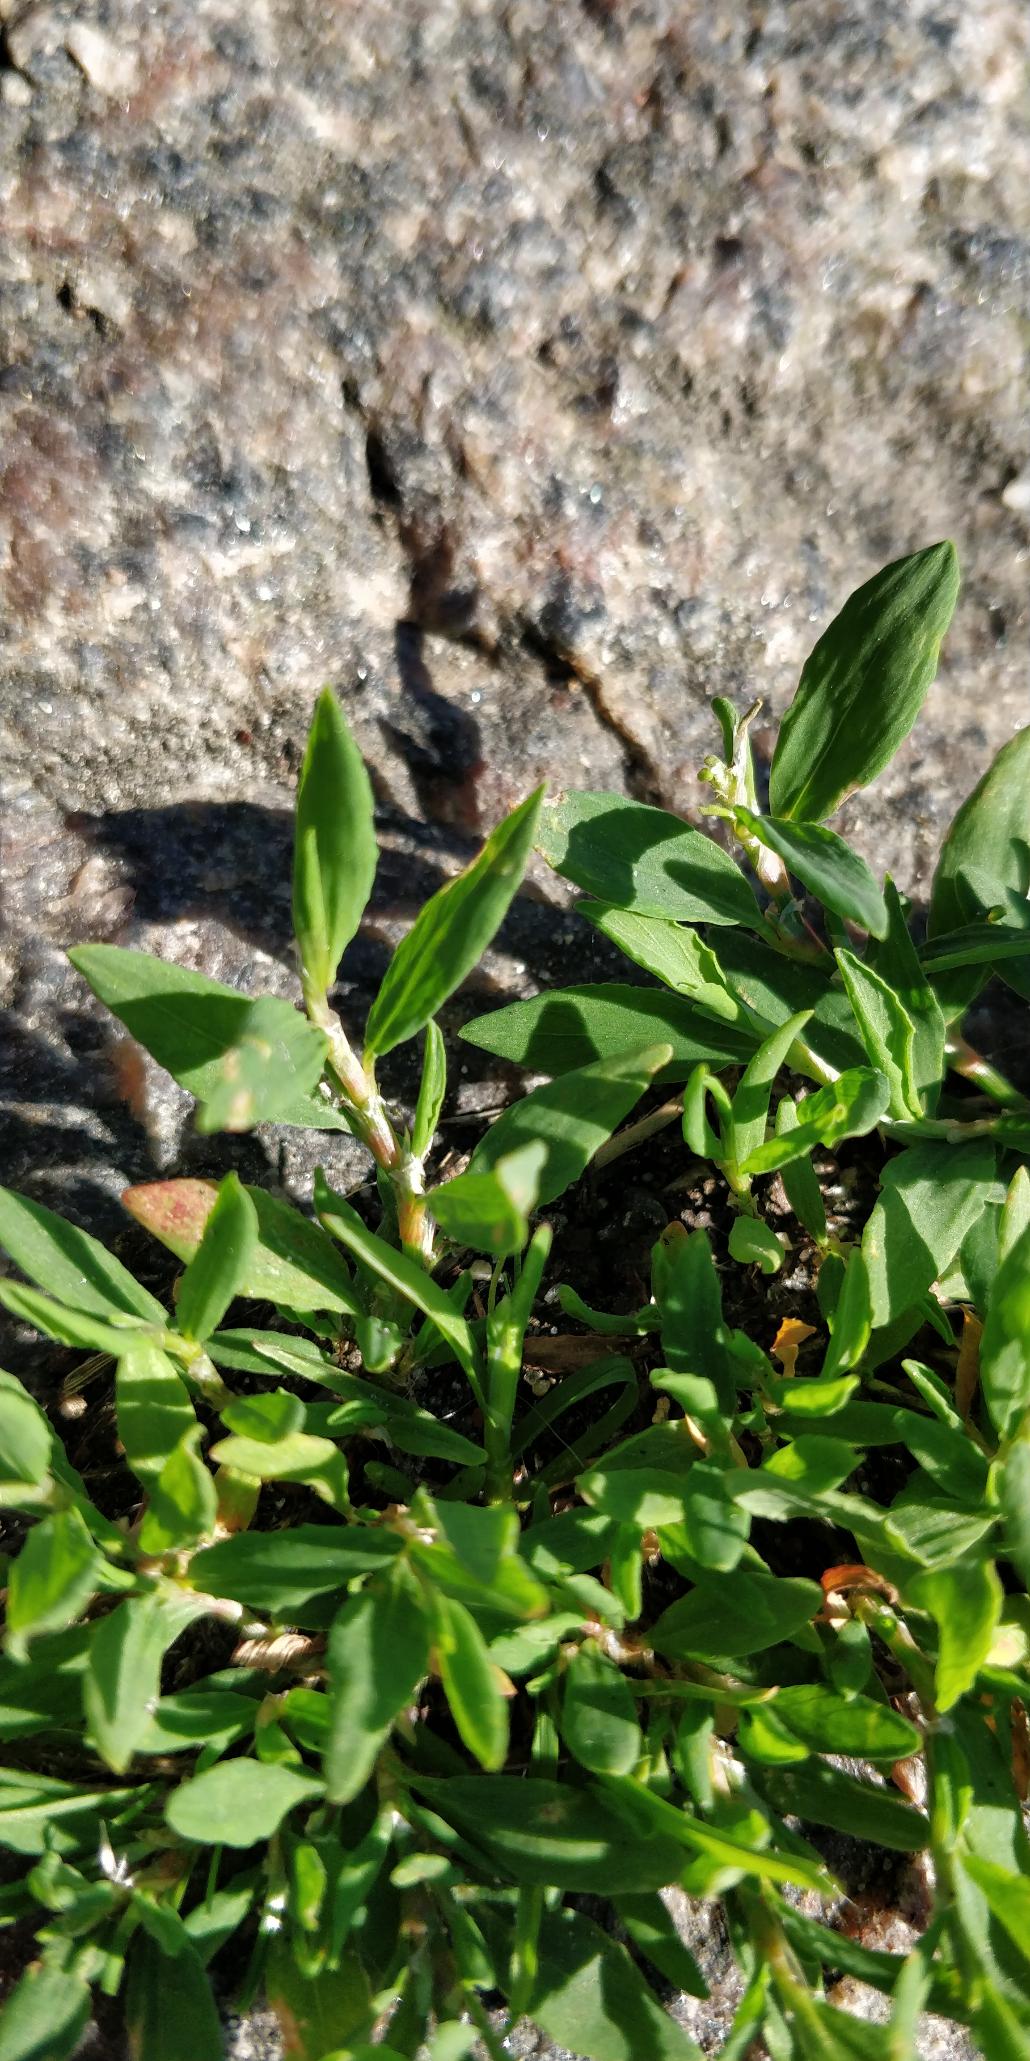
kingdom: Plantae
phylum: Tracheophyta
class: Magnoliopsida
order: Caryophyllales
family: Polygonaceae
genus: Polygonum
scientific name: Polygonum arenastrum
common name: Liggende vej-pileurt
